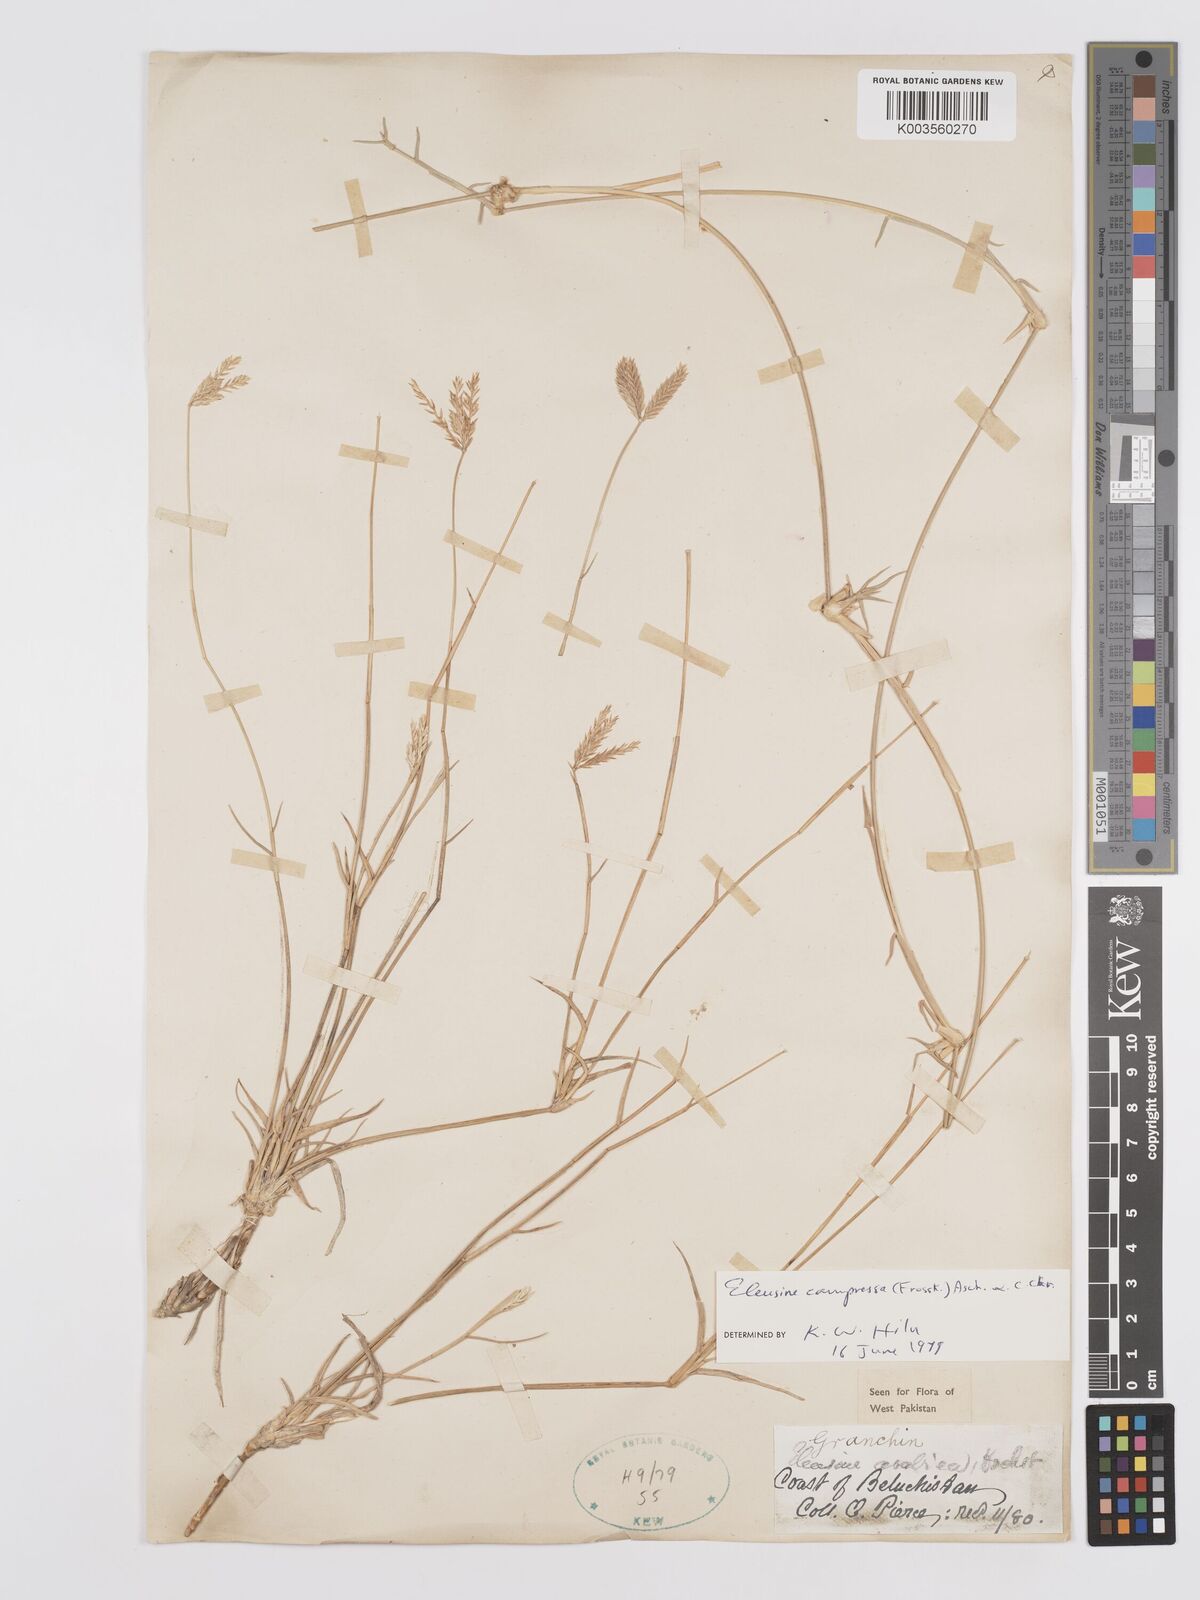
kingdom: Plantae
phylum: Tracheophyta
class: Liliopsida
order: Poales
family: Poaceae
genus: Chloris
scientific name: Chloris flagellifera
